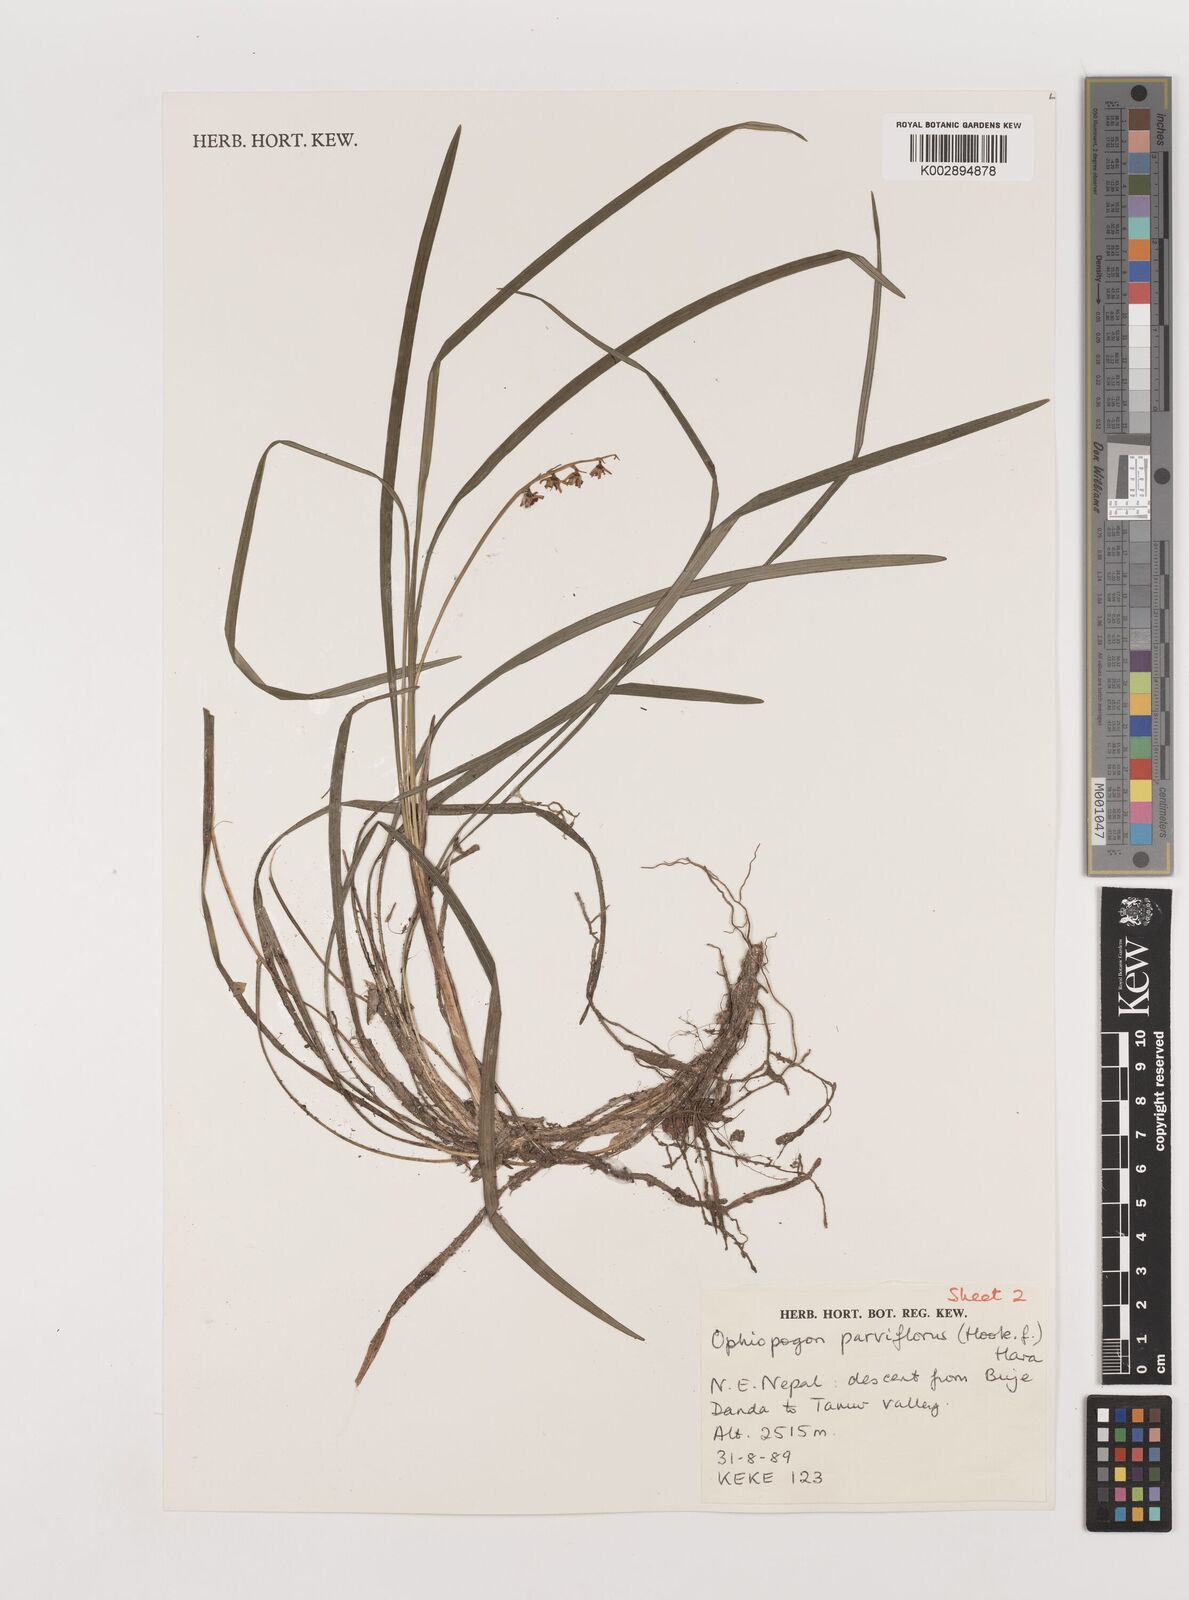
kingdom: Plantae
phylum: Tracheophyta
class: Liliopsida
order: Asparagales
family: Asparagaceae
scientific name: Asparagaceae
